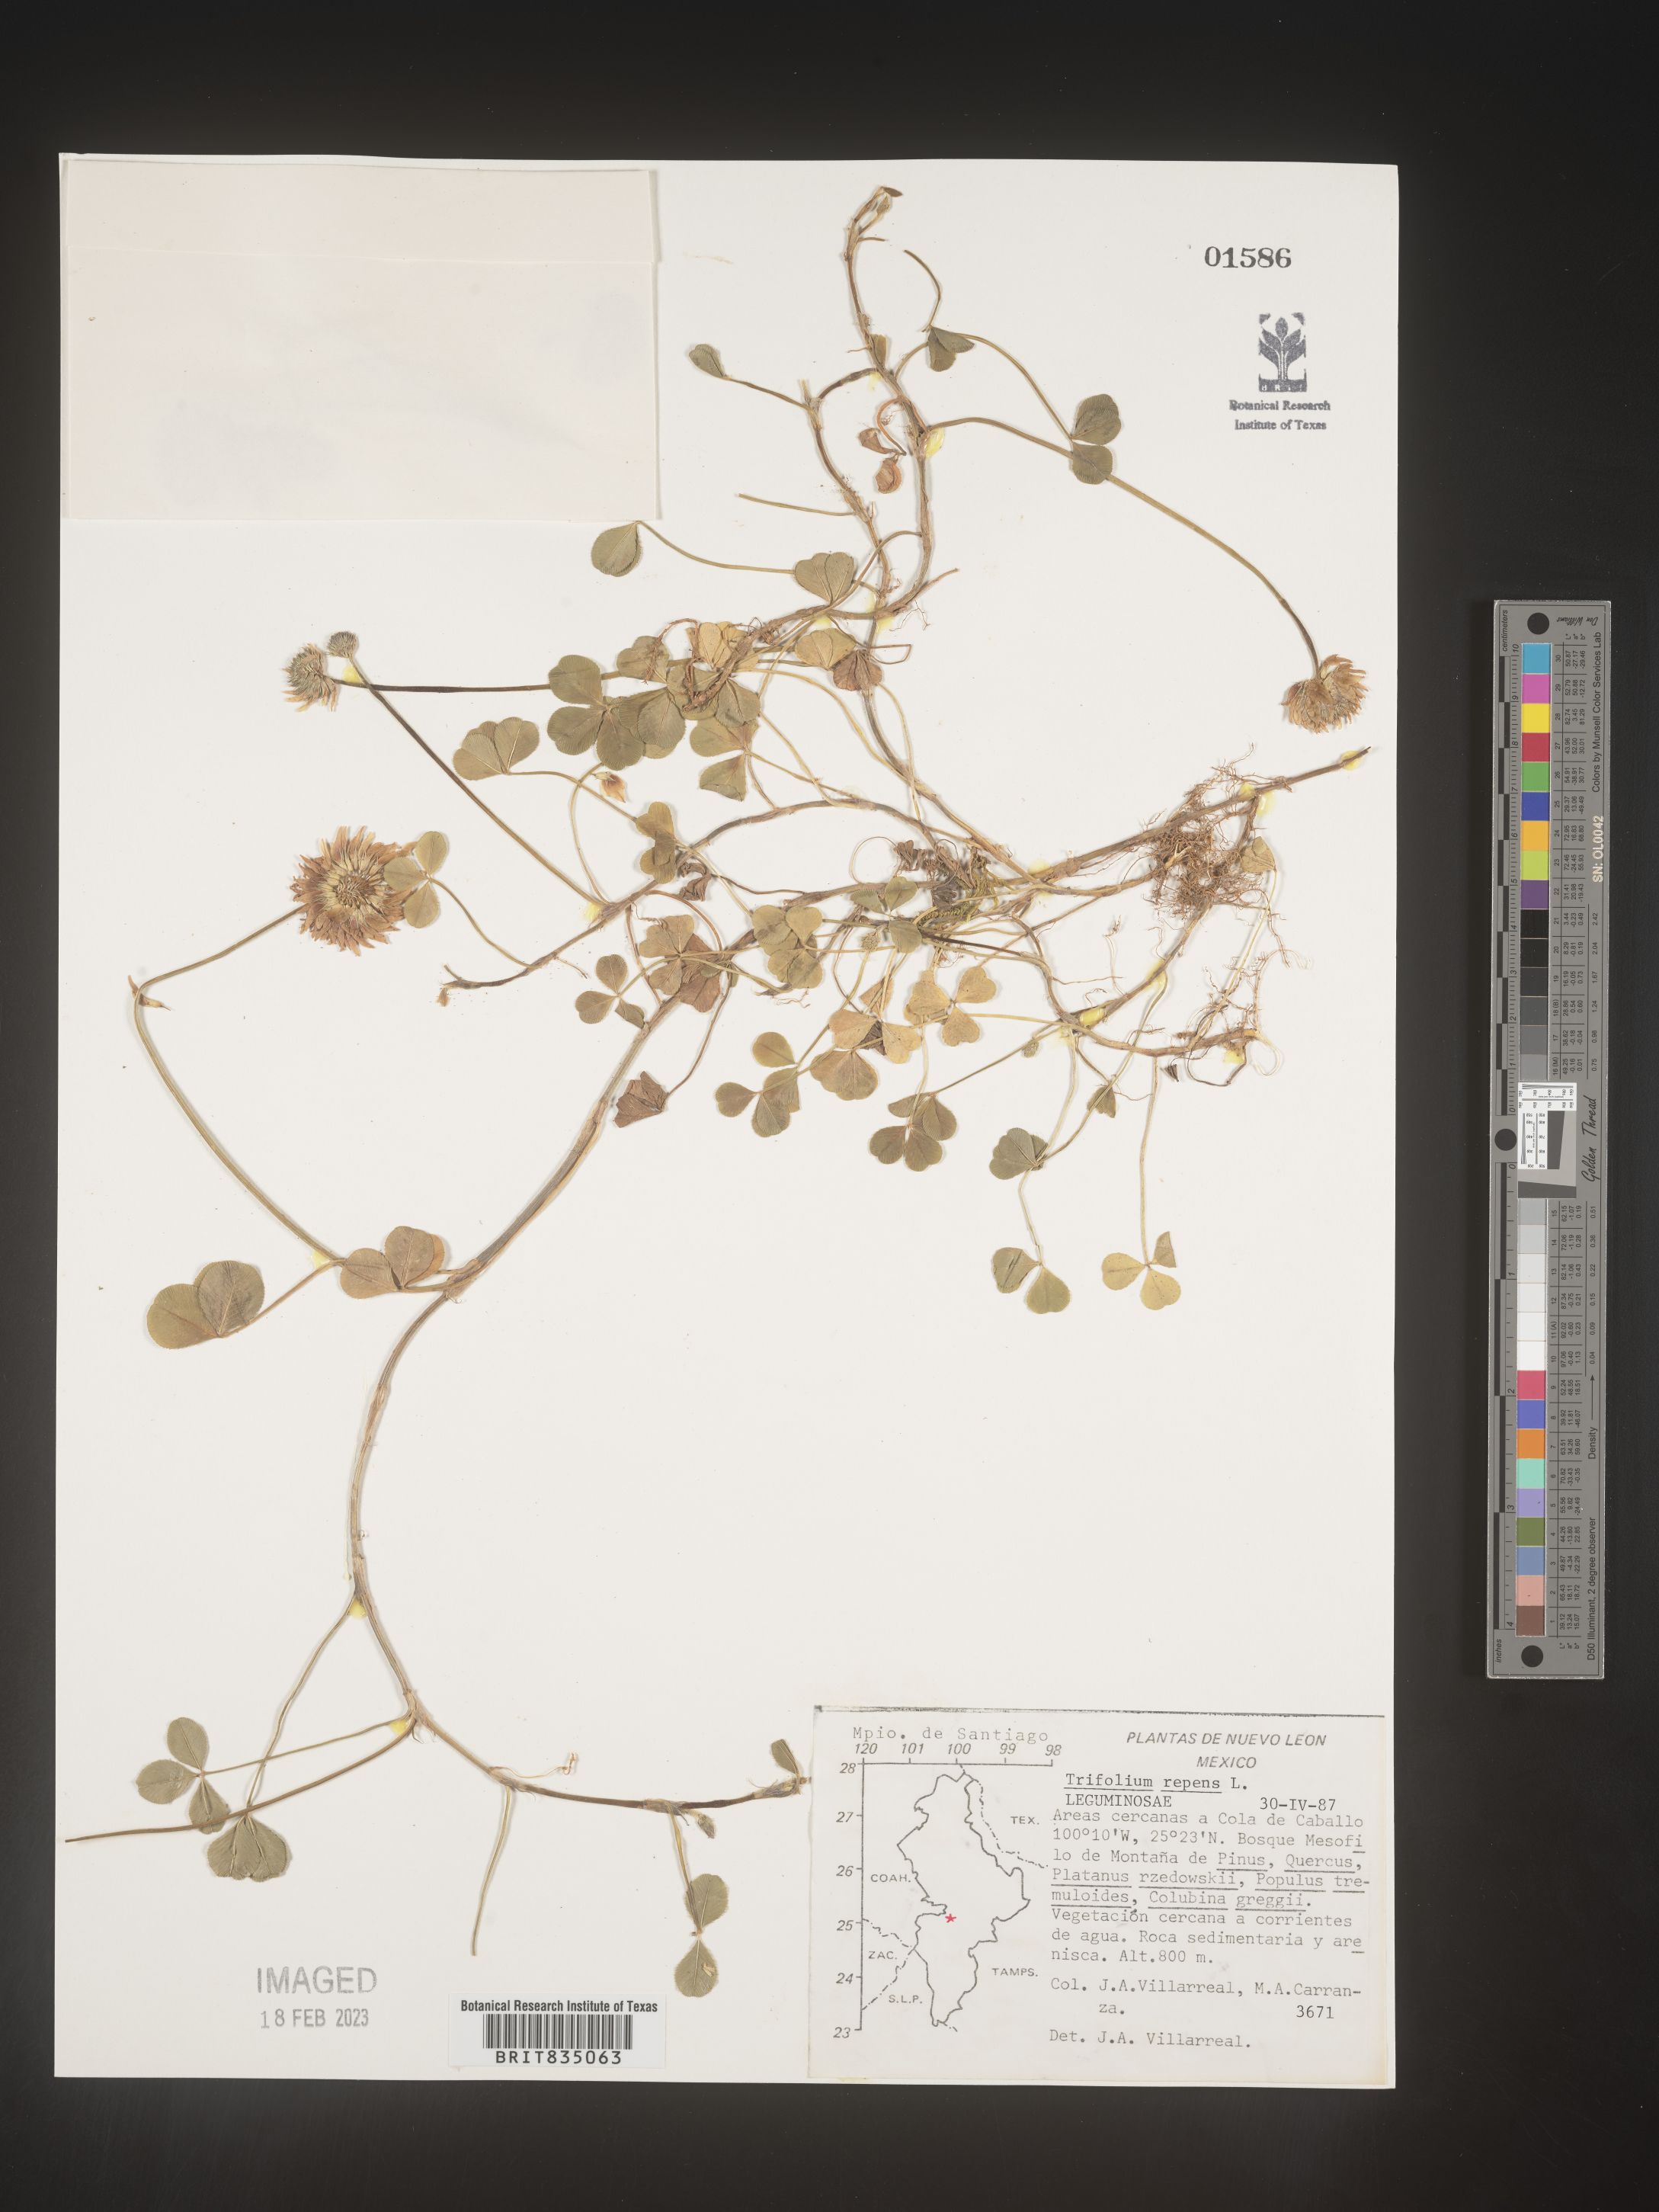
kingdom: Plantae
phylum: Tracheophyta
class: Magnoliopsida
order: Fabales
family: Fabaceae
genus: Trifolium
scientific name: Trifolium
